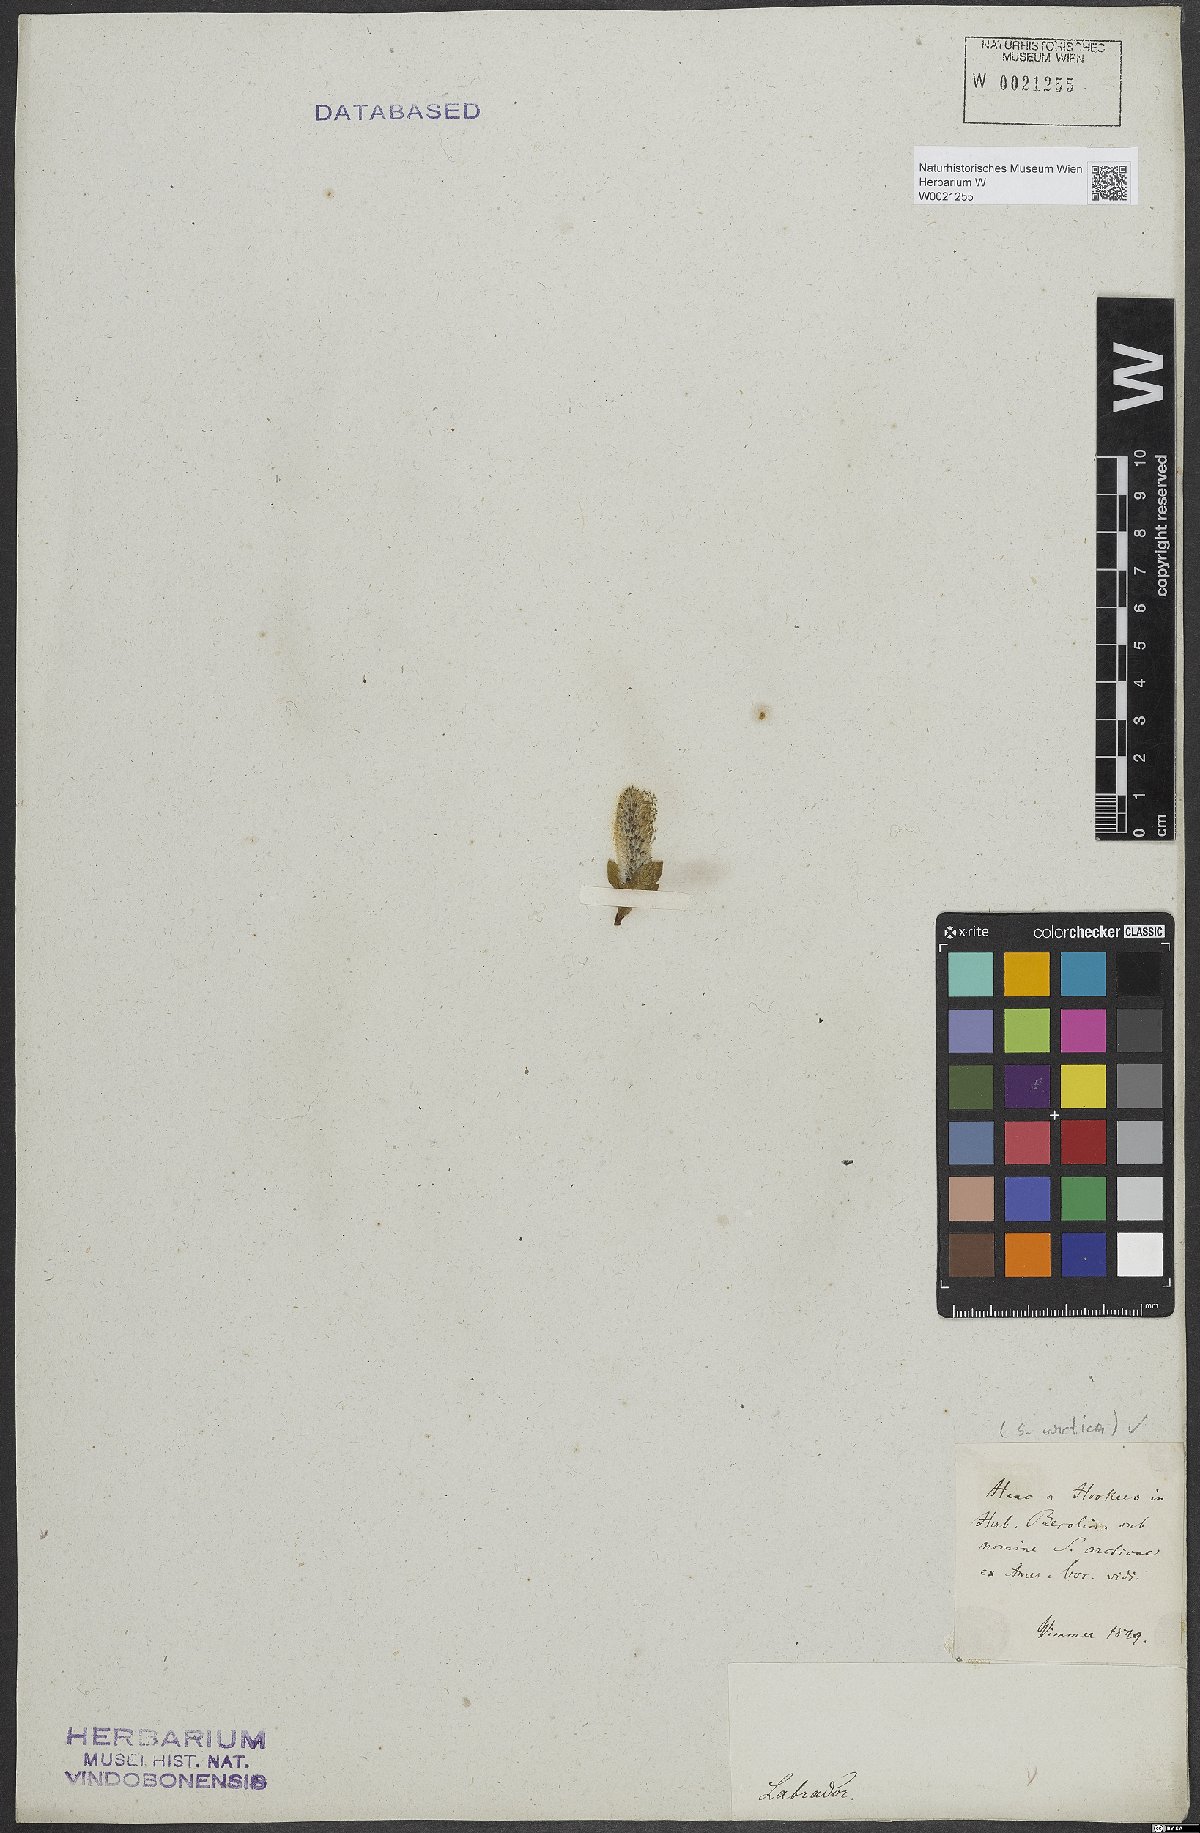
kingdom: Plantae
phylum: Tracheophyta
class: Magnoliopsida
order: Malpighiales
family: Salicaceae
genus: Salix
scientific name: Salix arctica
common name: Arctic willow
